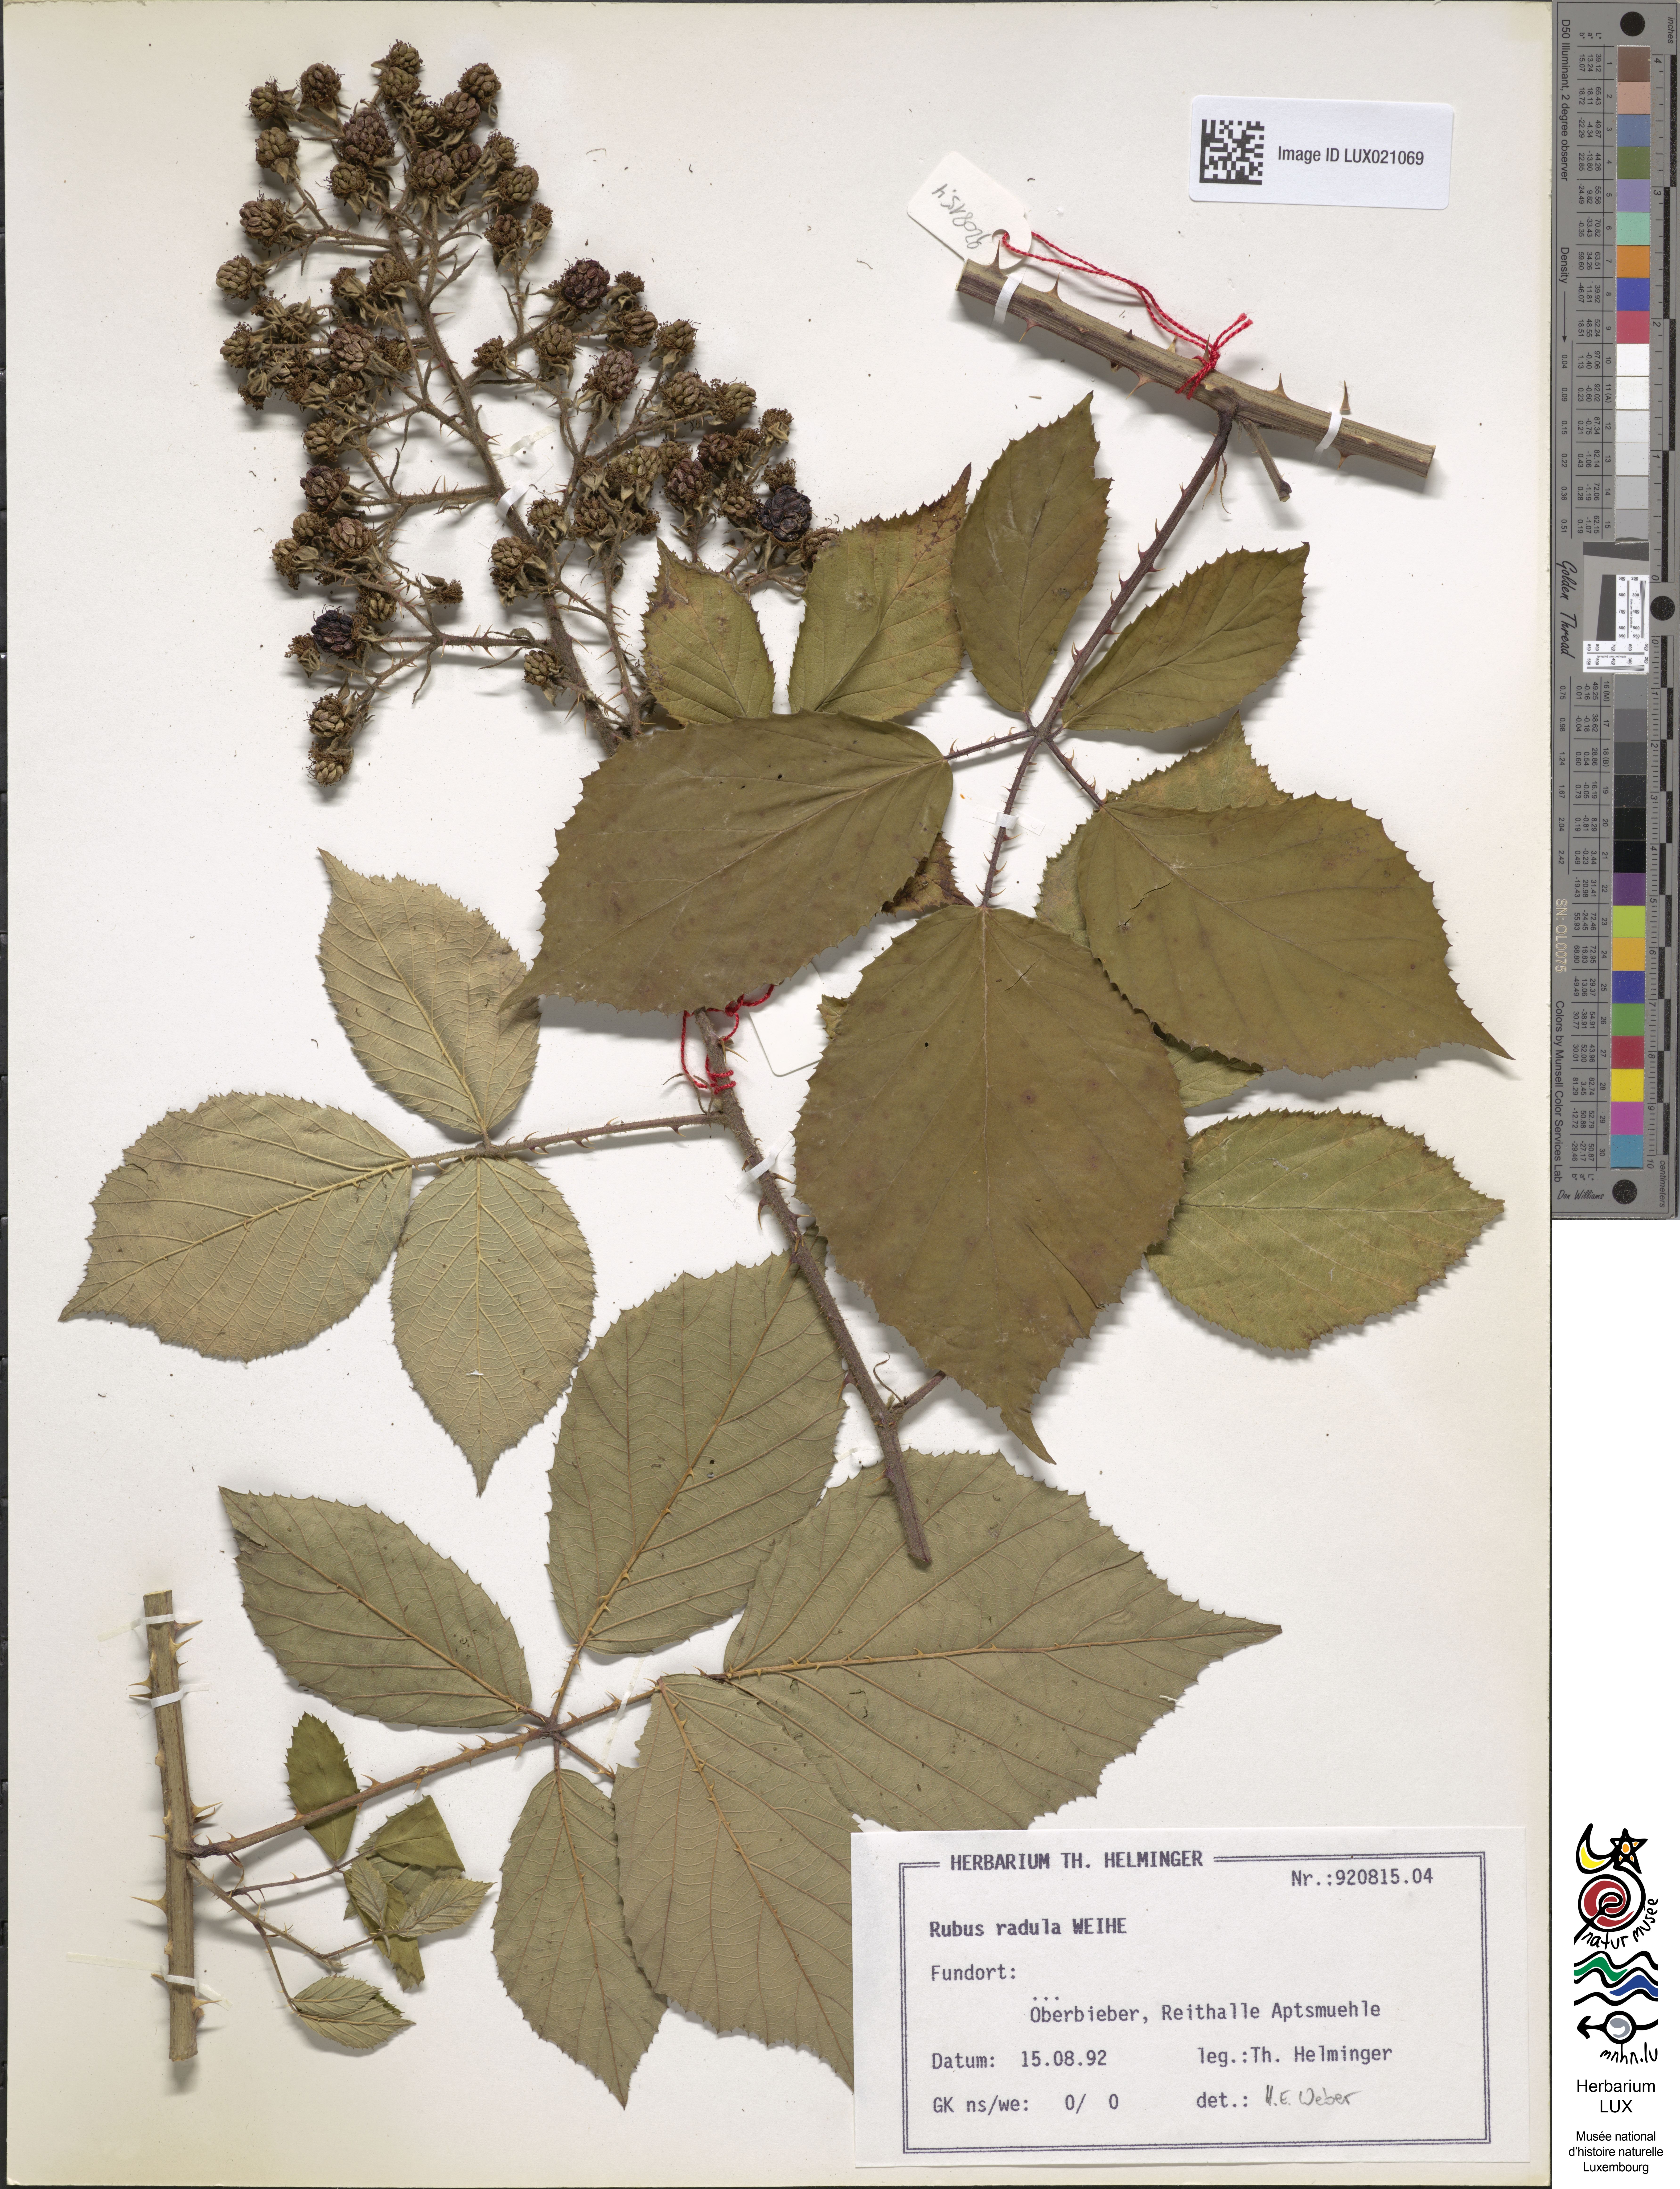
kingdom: Plantae
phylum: Tracheophyta
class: Magnoliopsida
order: Rosales
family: Rosaceae
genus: Rubus
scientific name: Rubus radula
